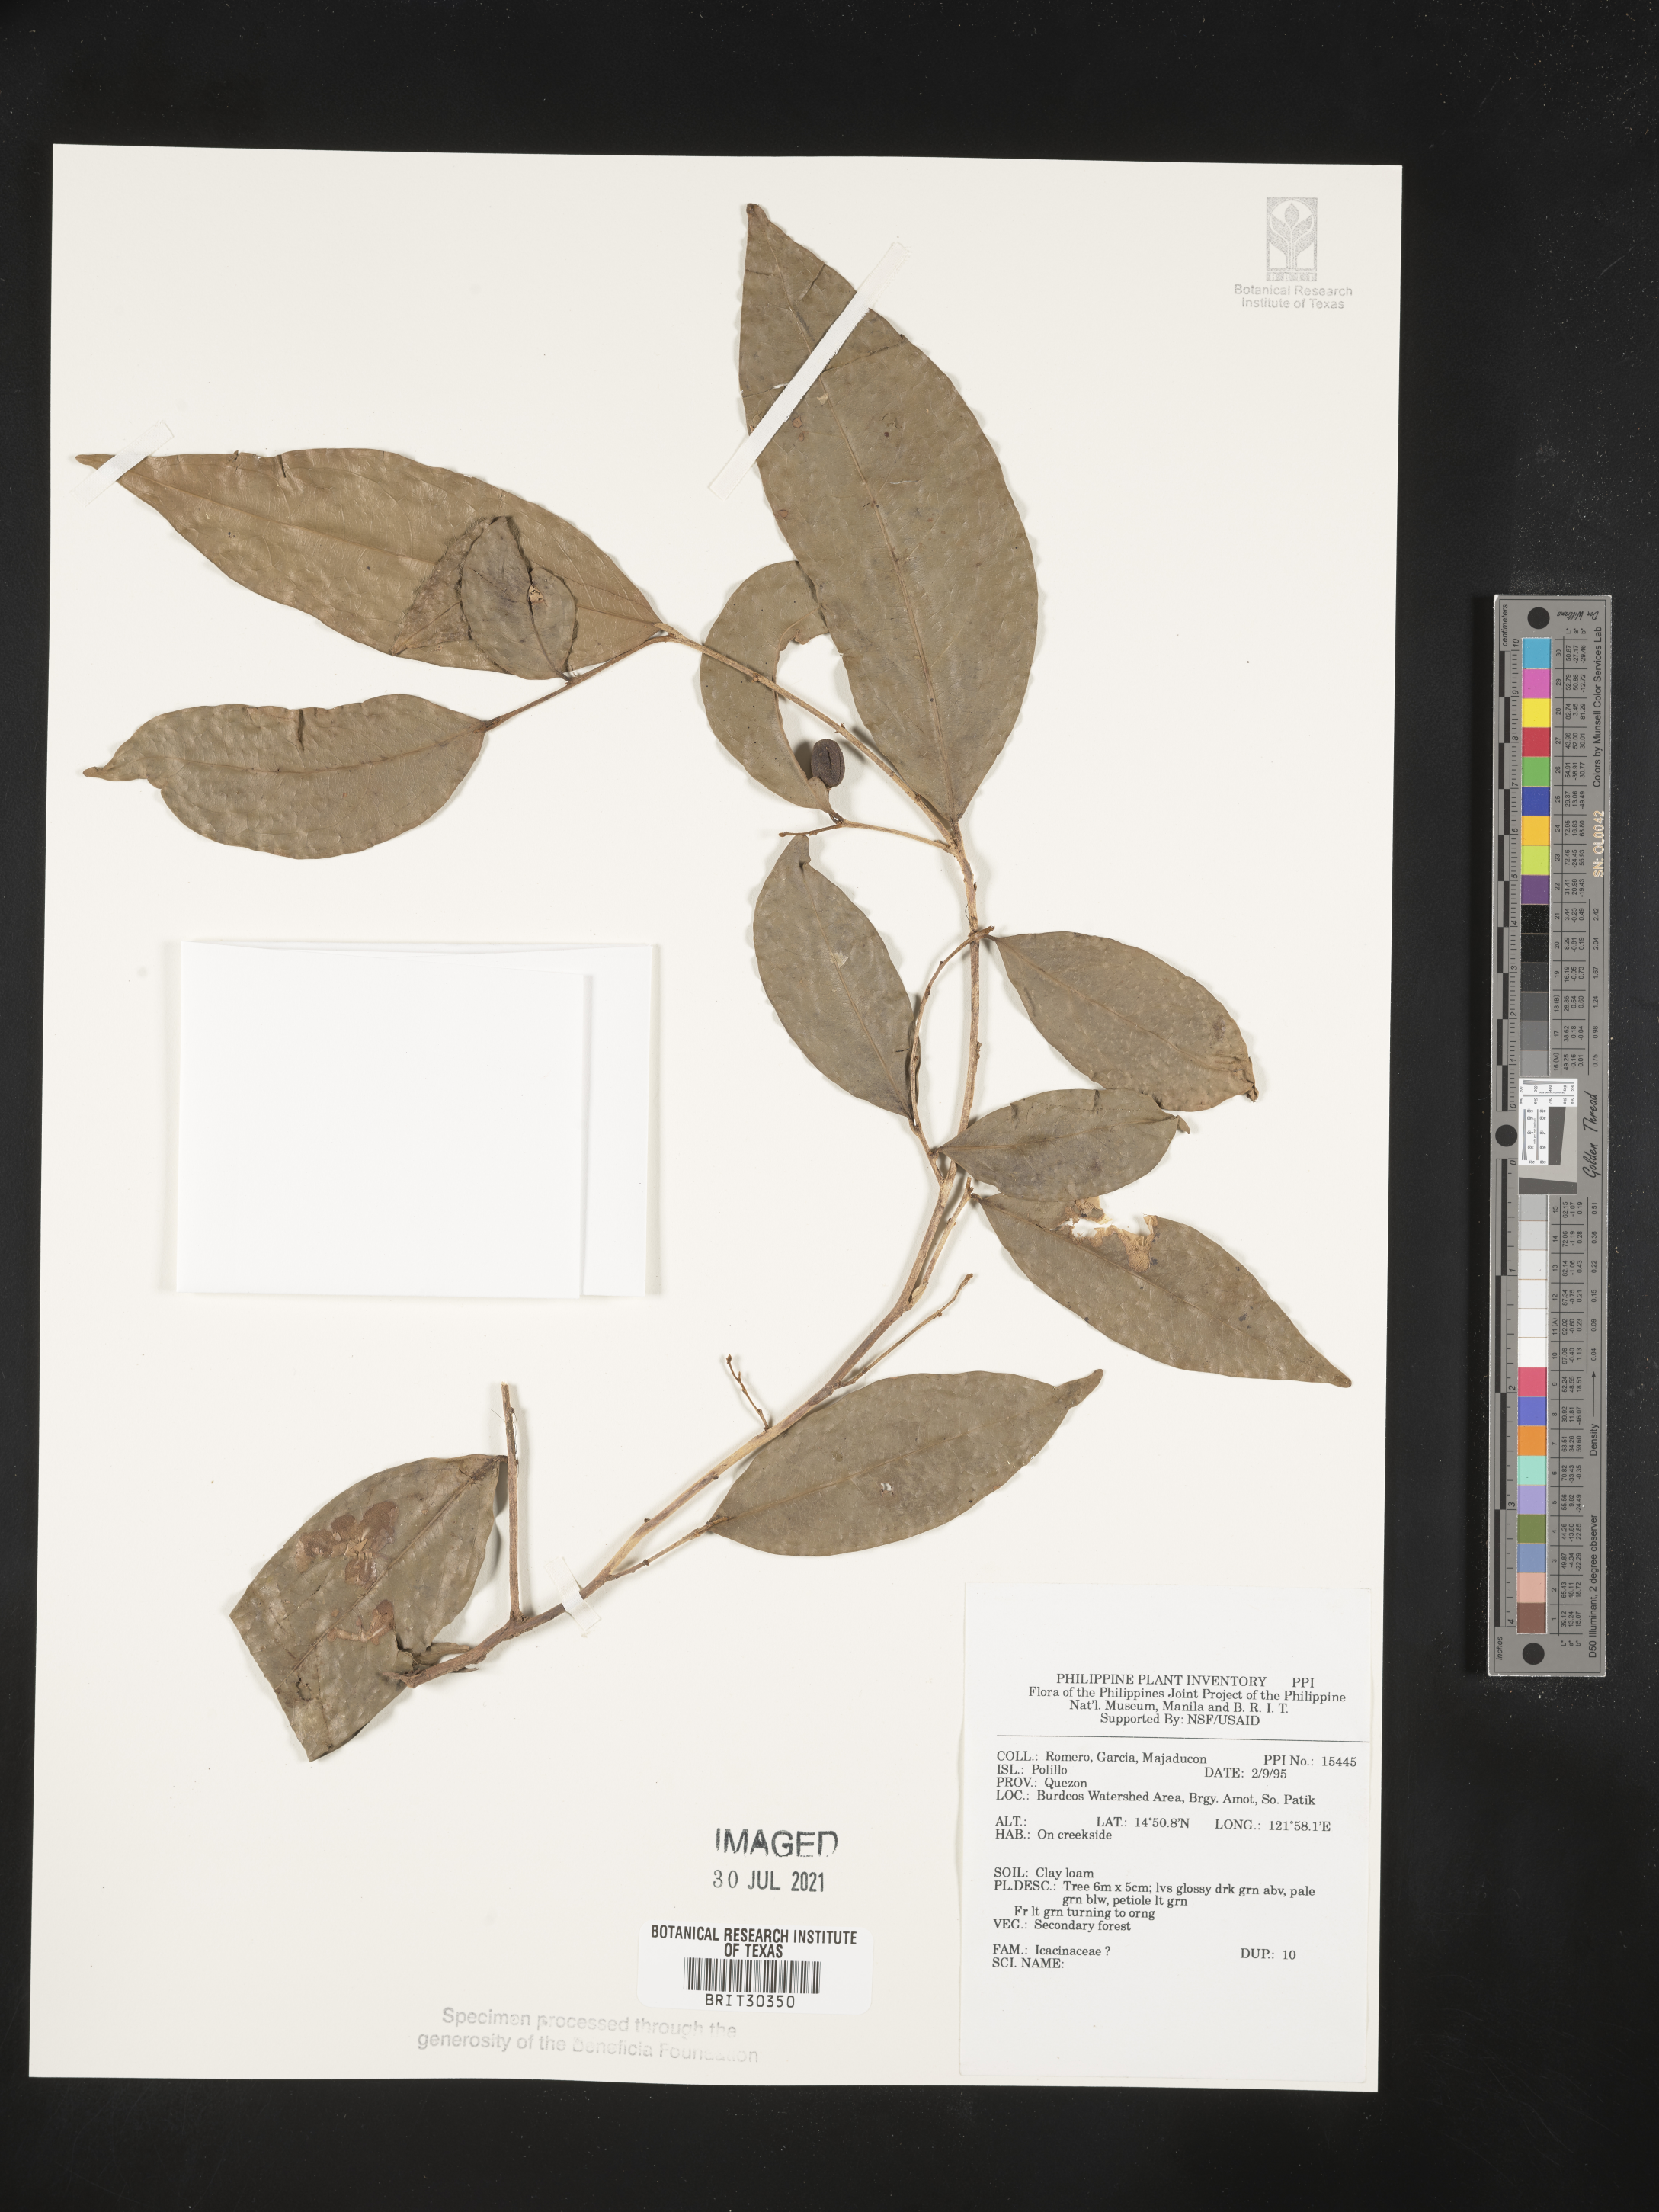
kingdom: Plantae
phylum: Tracheophyta
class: Magnoliopsida
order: Icacinales
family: Icacinaceae
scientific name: Icacinaceae
